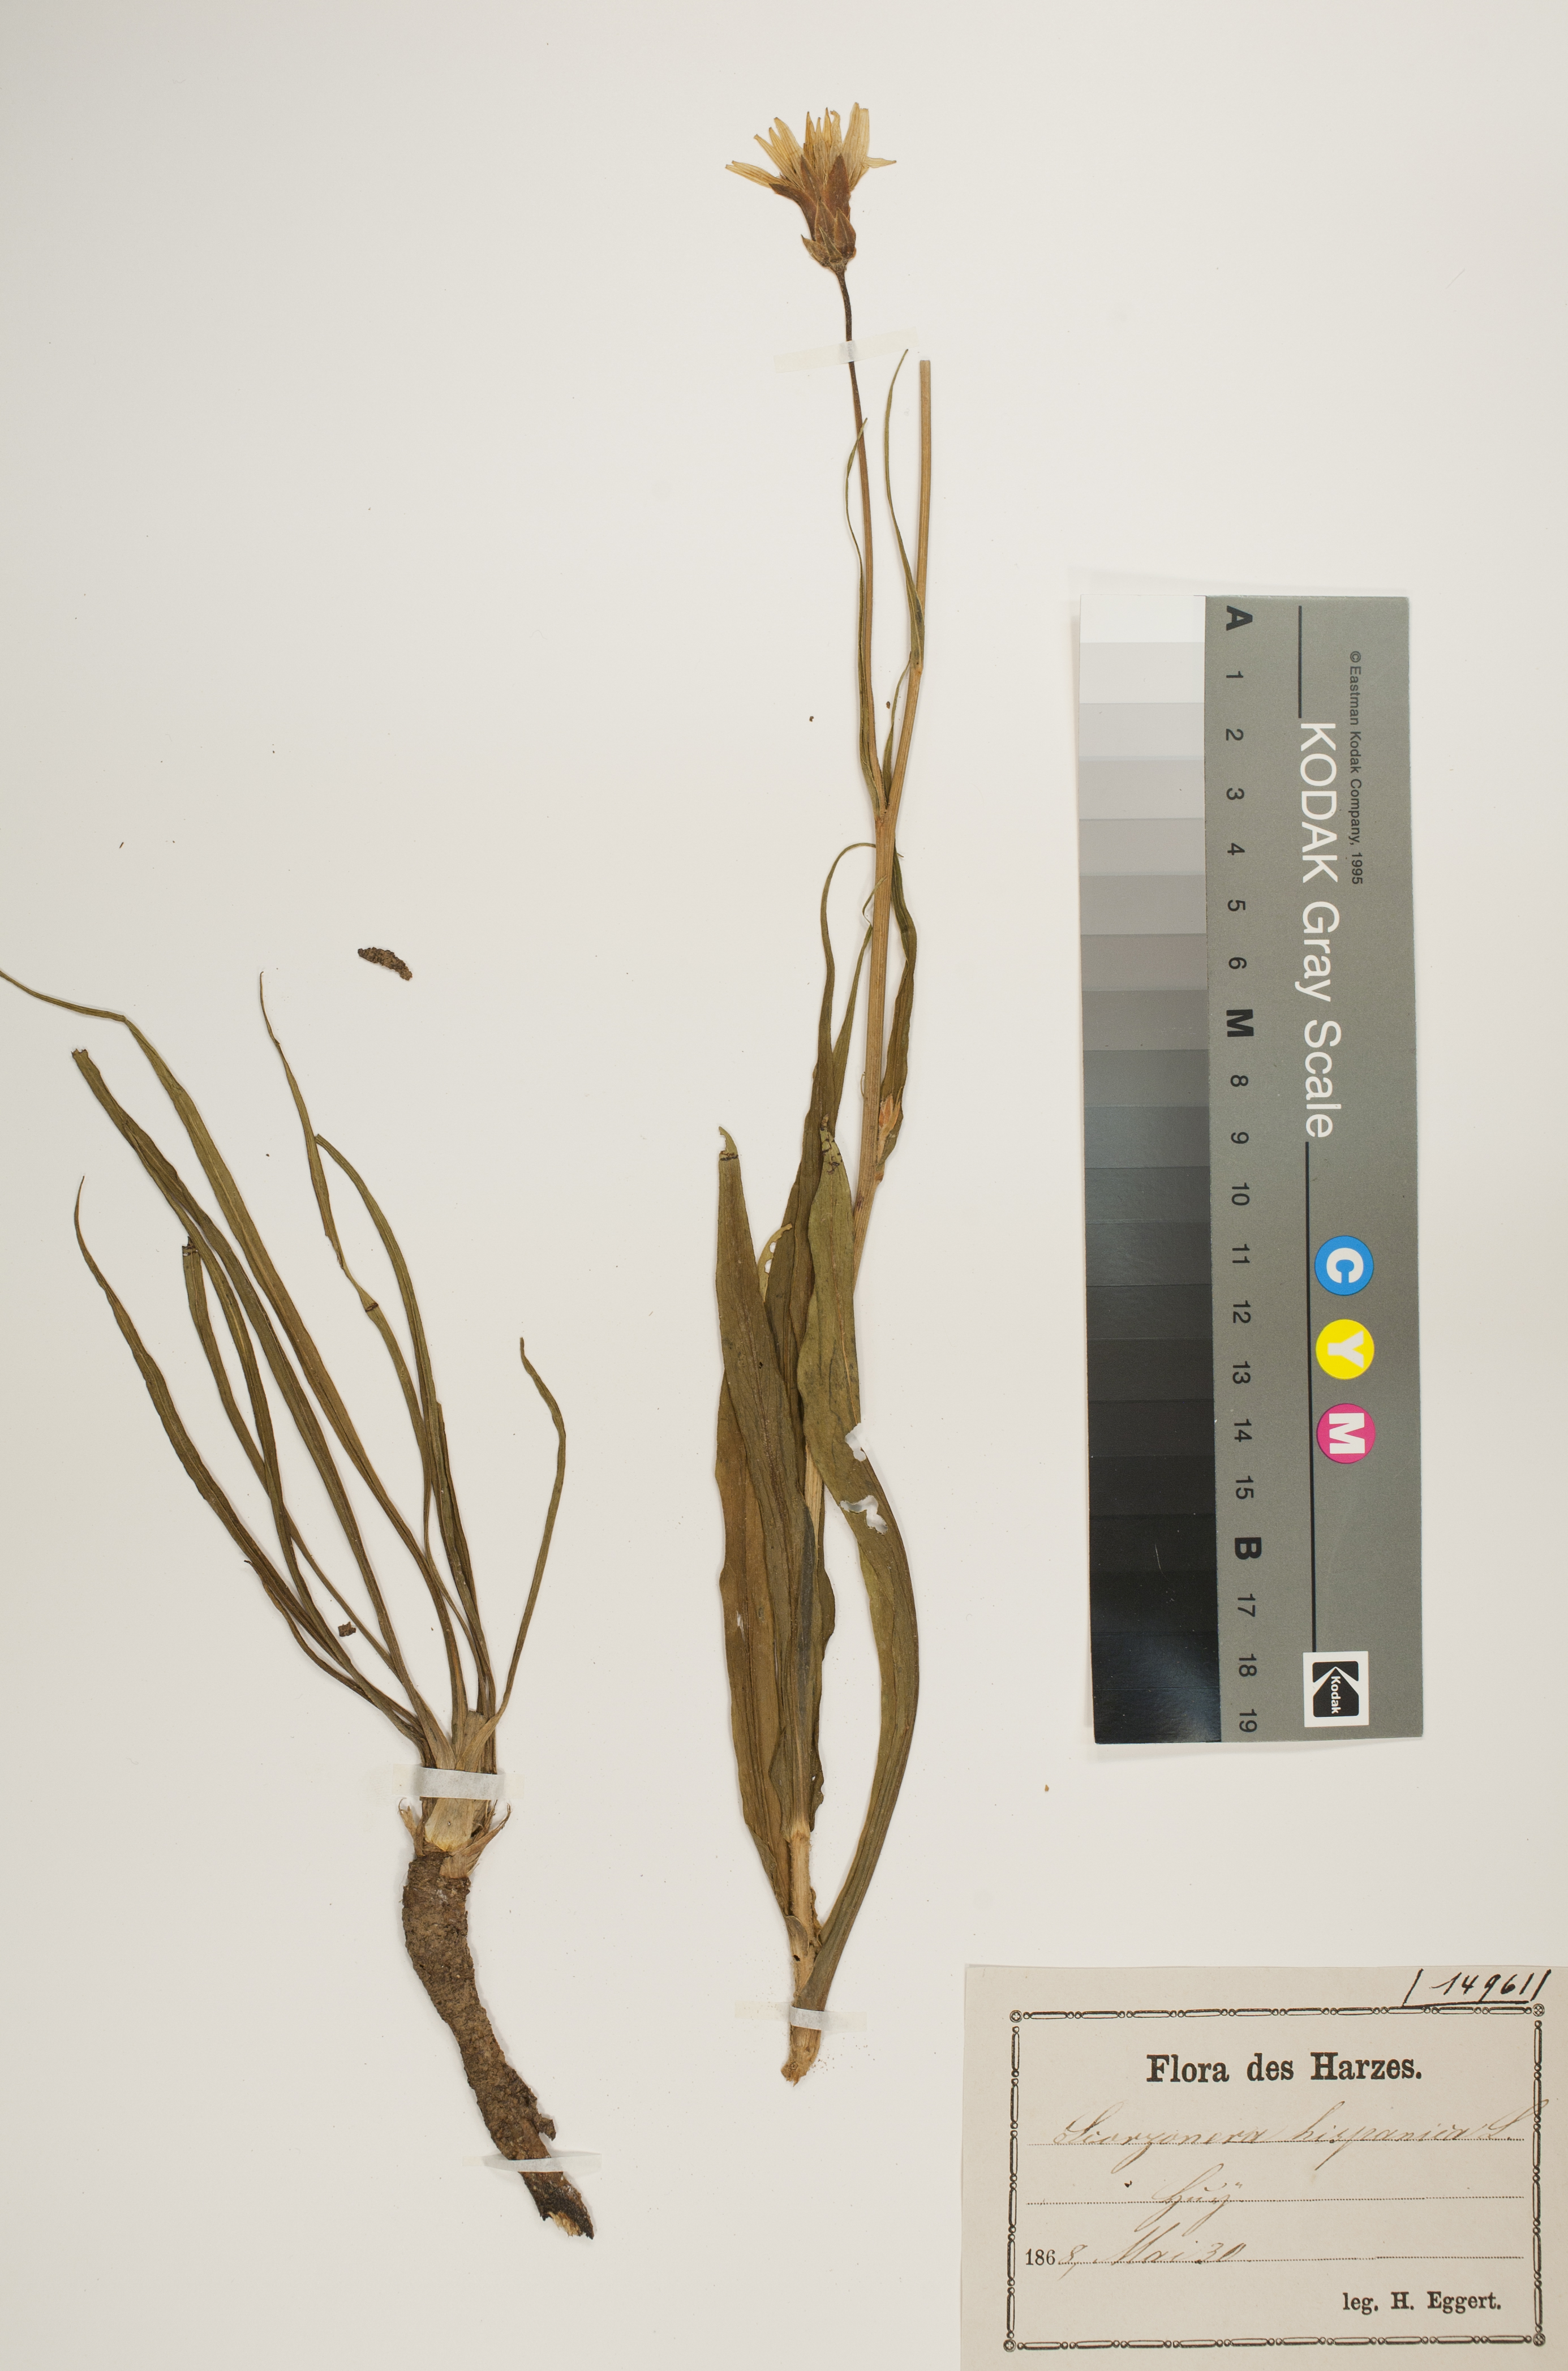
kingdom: Plantae
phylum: Tracheophyta
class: Magnoliopsida
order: Asterales
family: Asteraceae
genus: Pseudopodospermum
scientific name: Pseudopodospermum hispanicum
